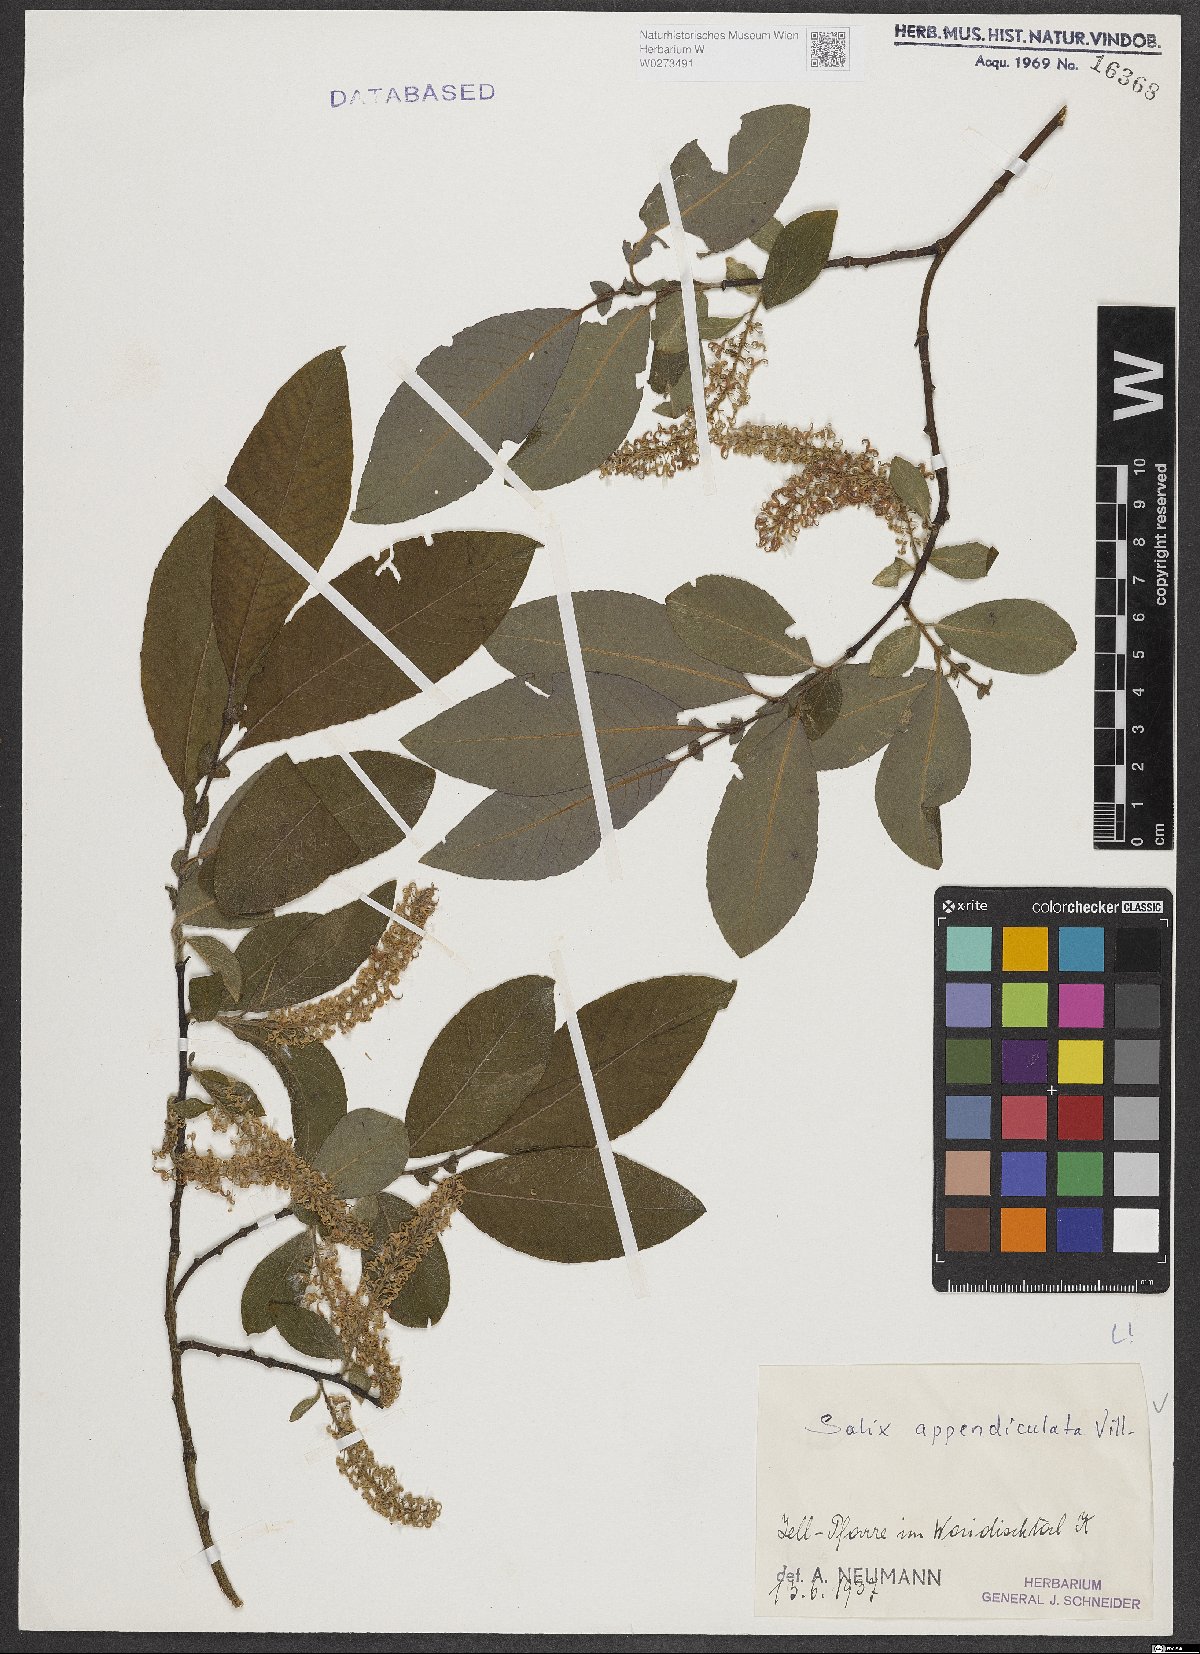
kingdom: Plantae
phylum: Tracheophyta
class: Magnoliopsida
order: Malpighiales
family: Salicaceae
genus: Salix
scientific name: Salix appendiculata
